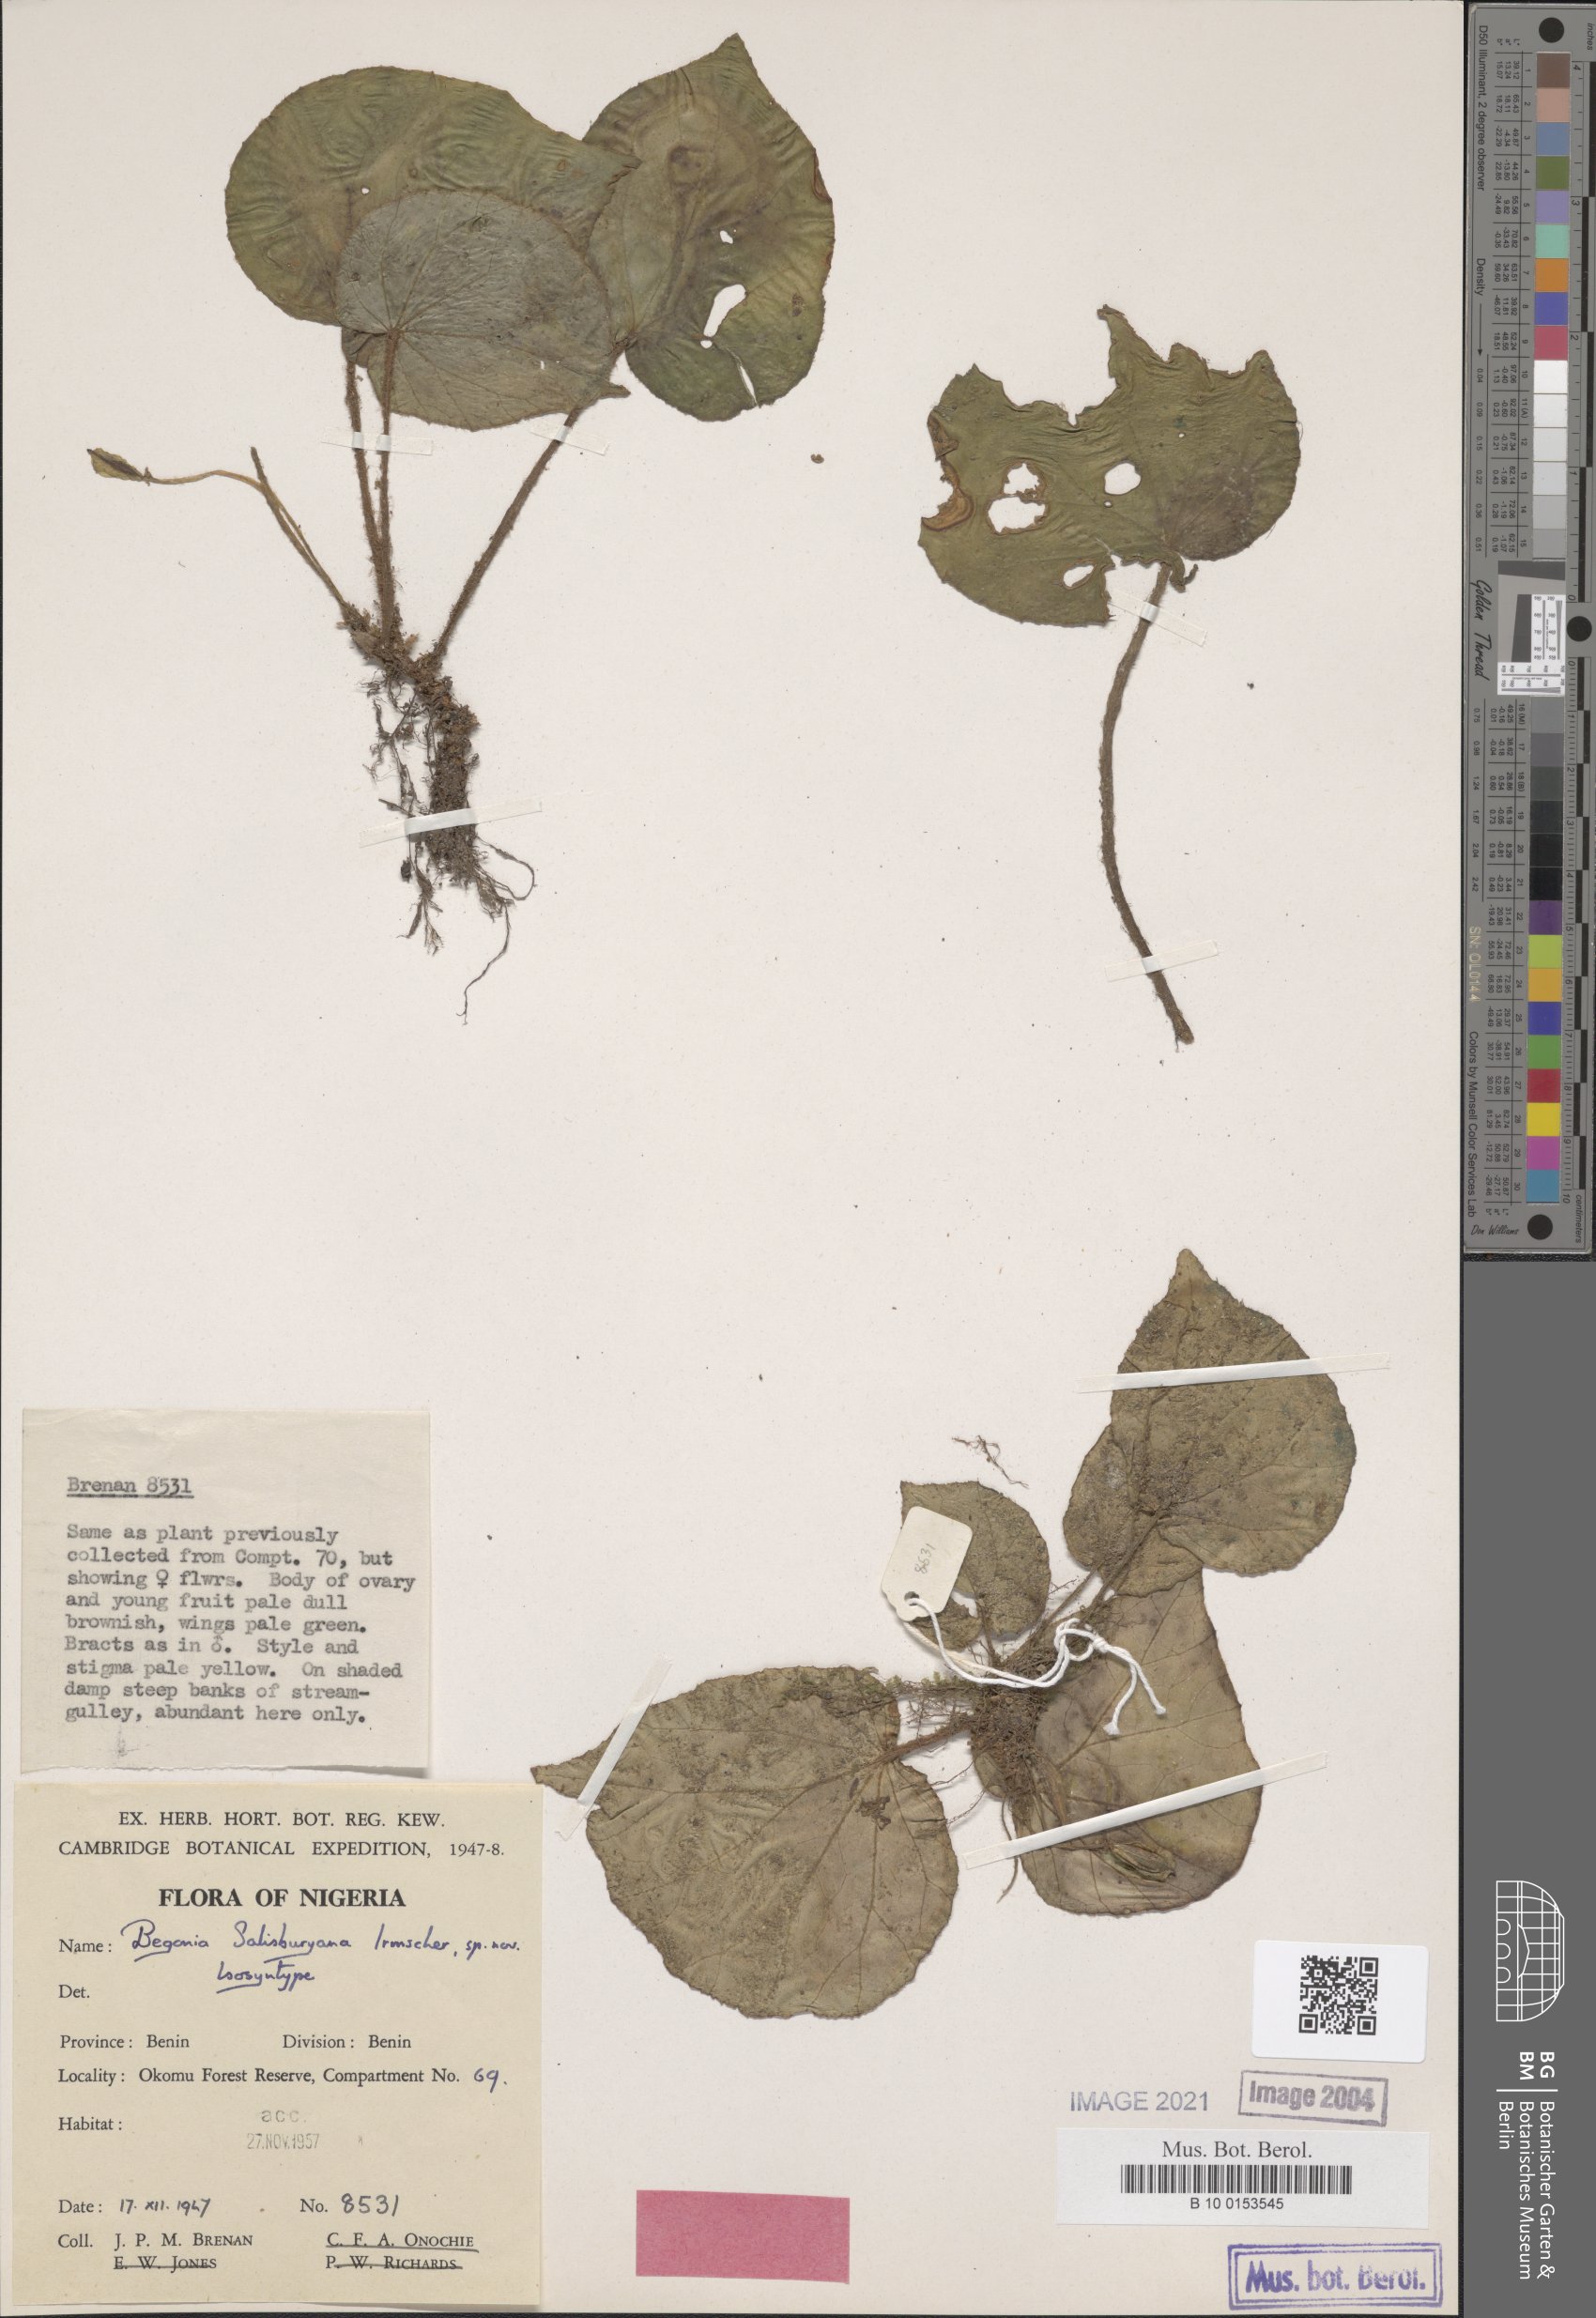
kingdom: Plantae
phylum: Tracheophyta
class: Magnoliopsida
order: Cucurbitales
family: Begoniaceae
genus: Begonia
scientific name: Begonia salisburyana
